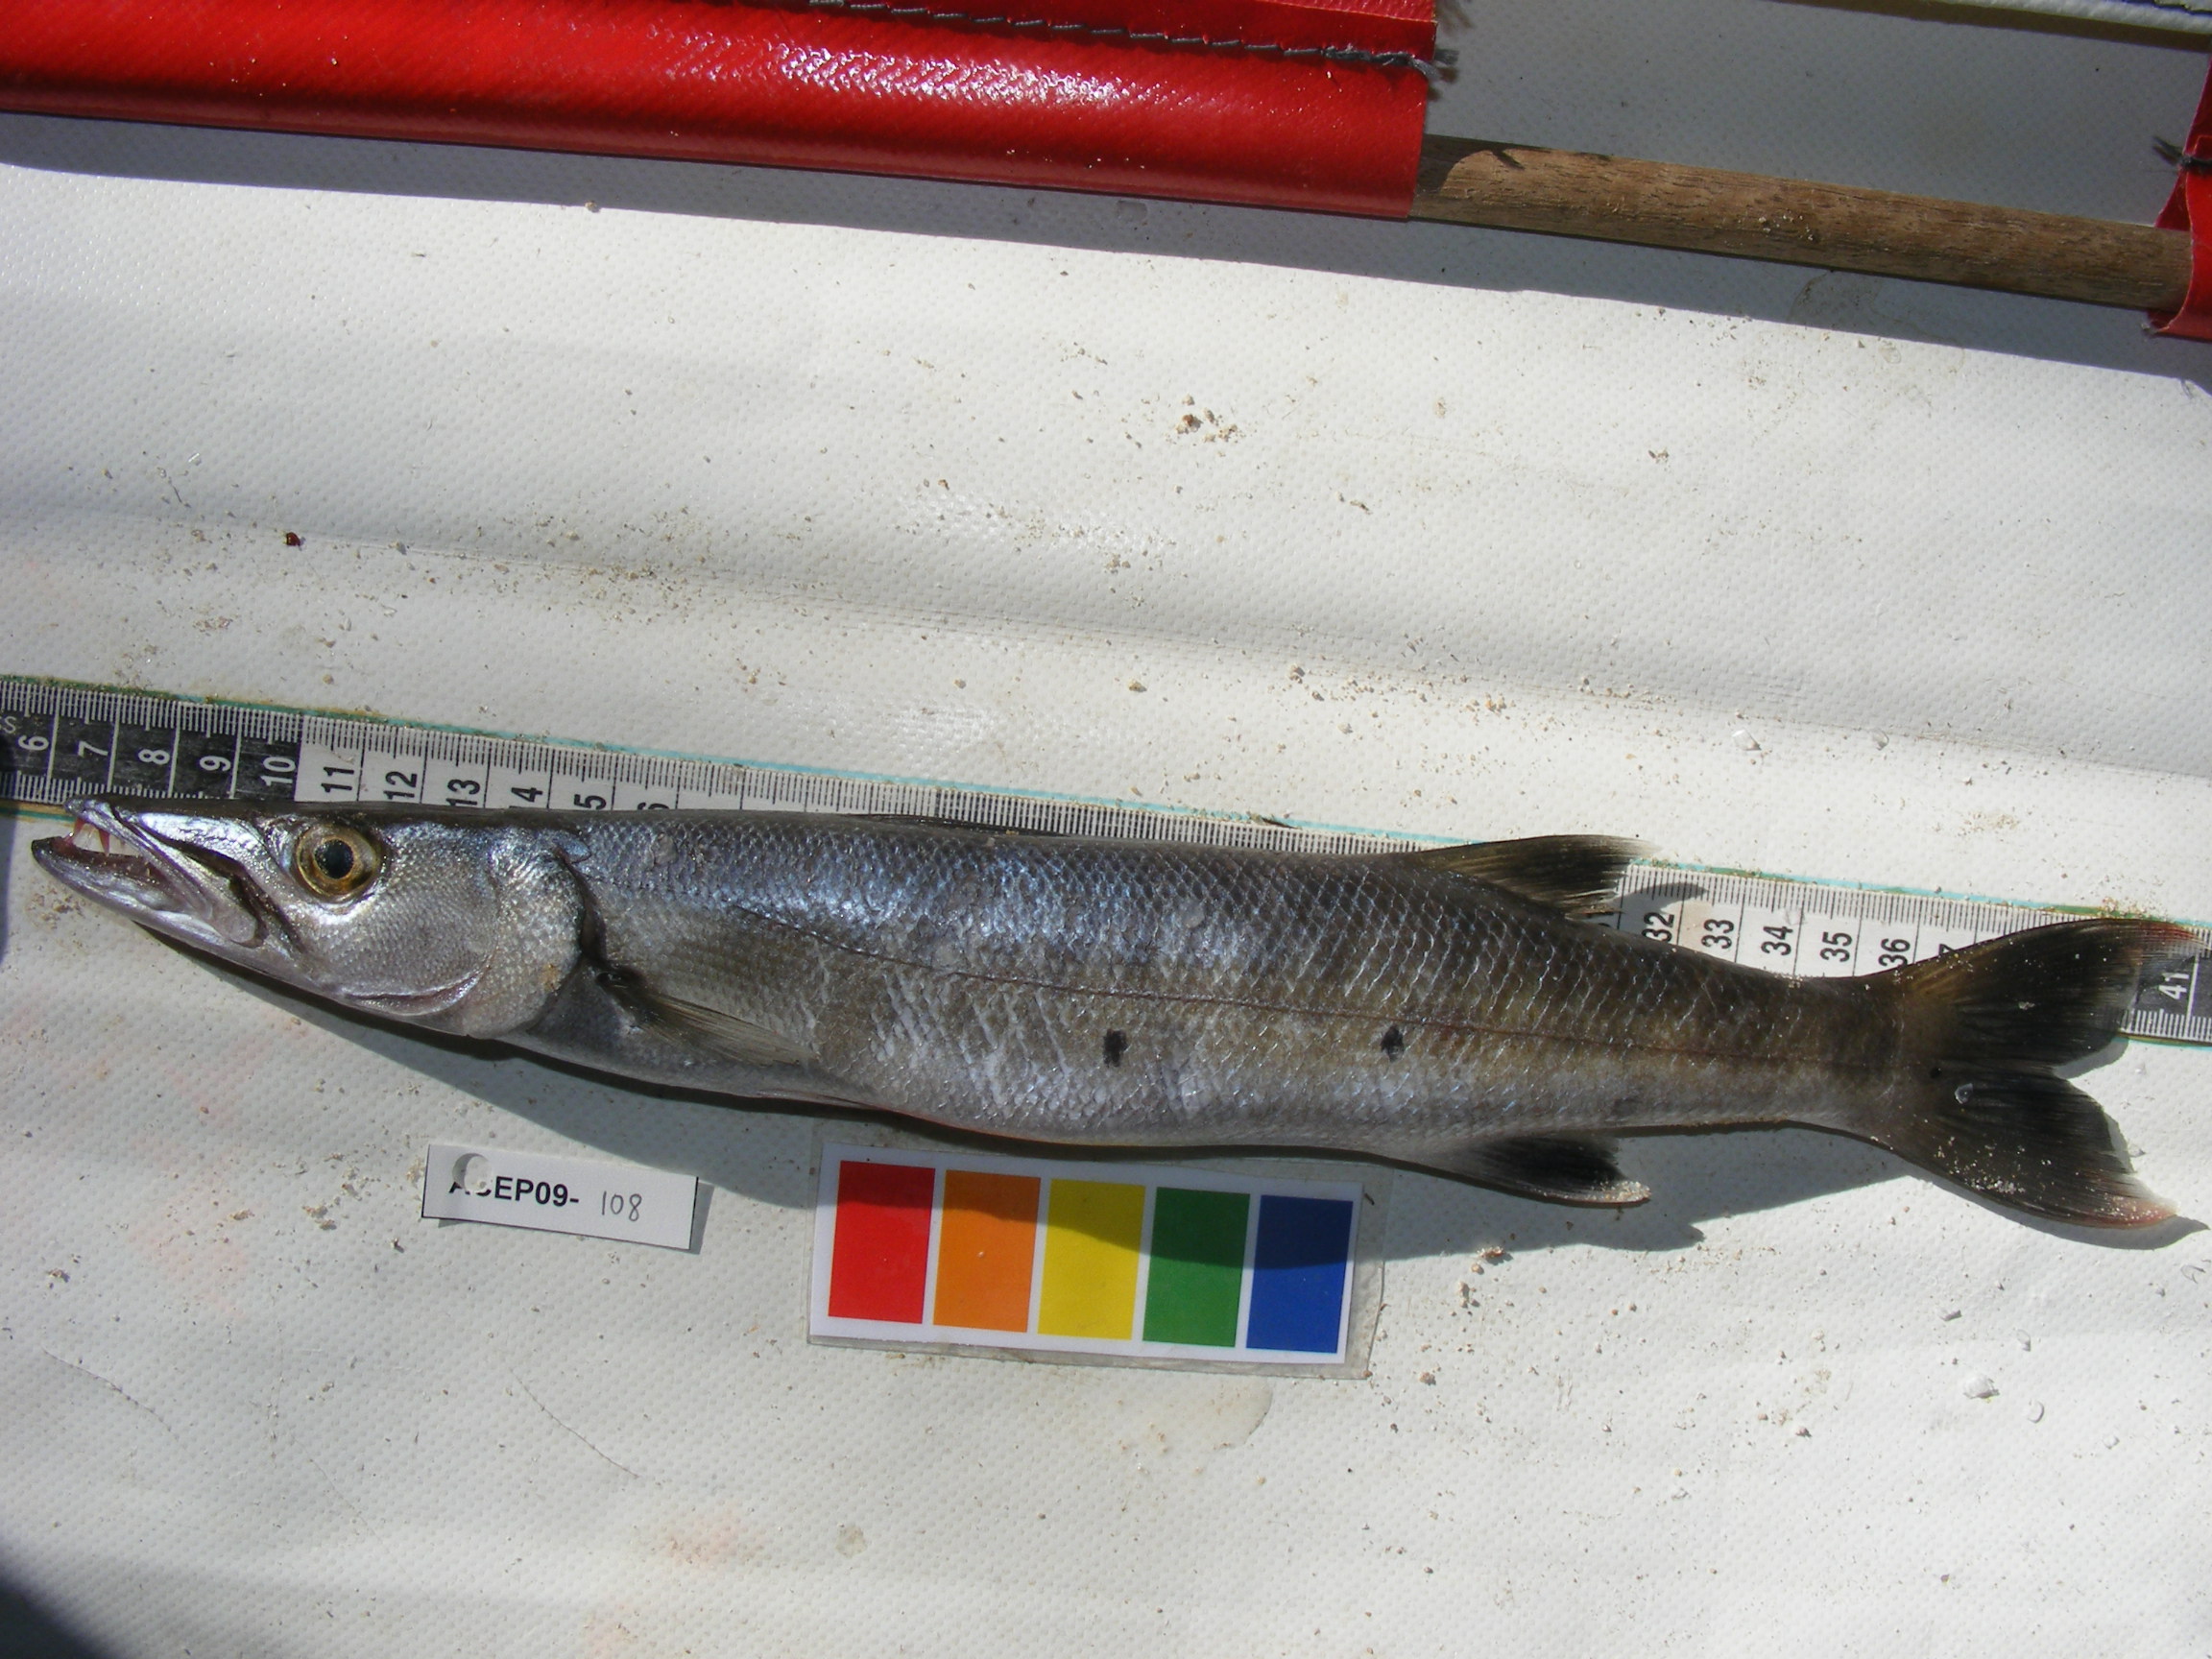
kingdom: Animalia
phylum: Chordata
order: Perciformes
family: Sphyraenidae
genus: Sphyraena
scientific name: Sphyraena barracuda
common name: Great barracuda
